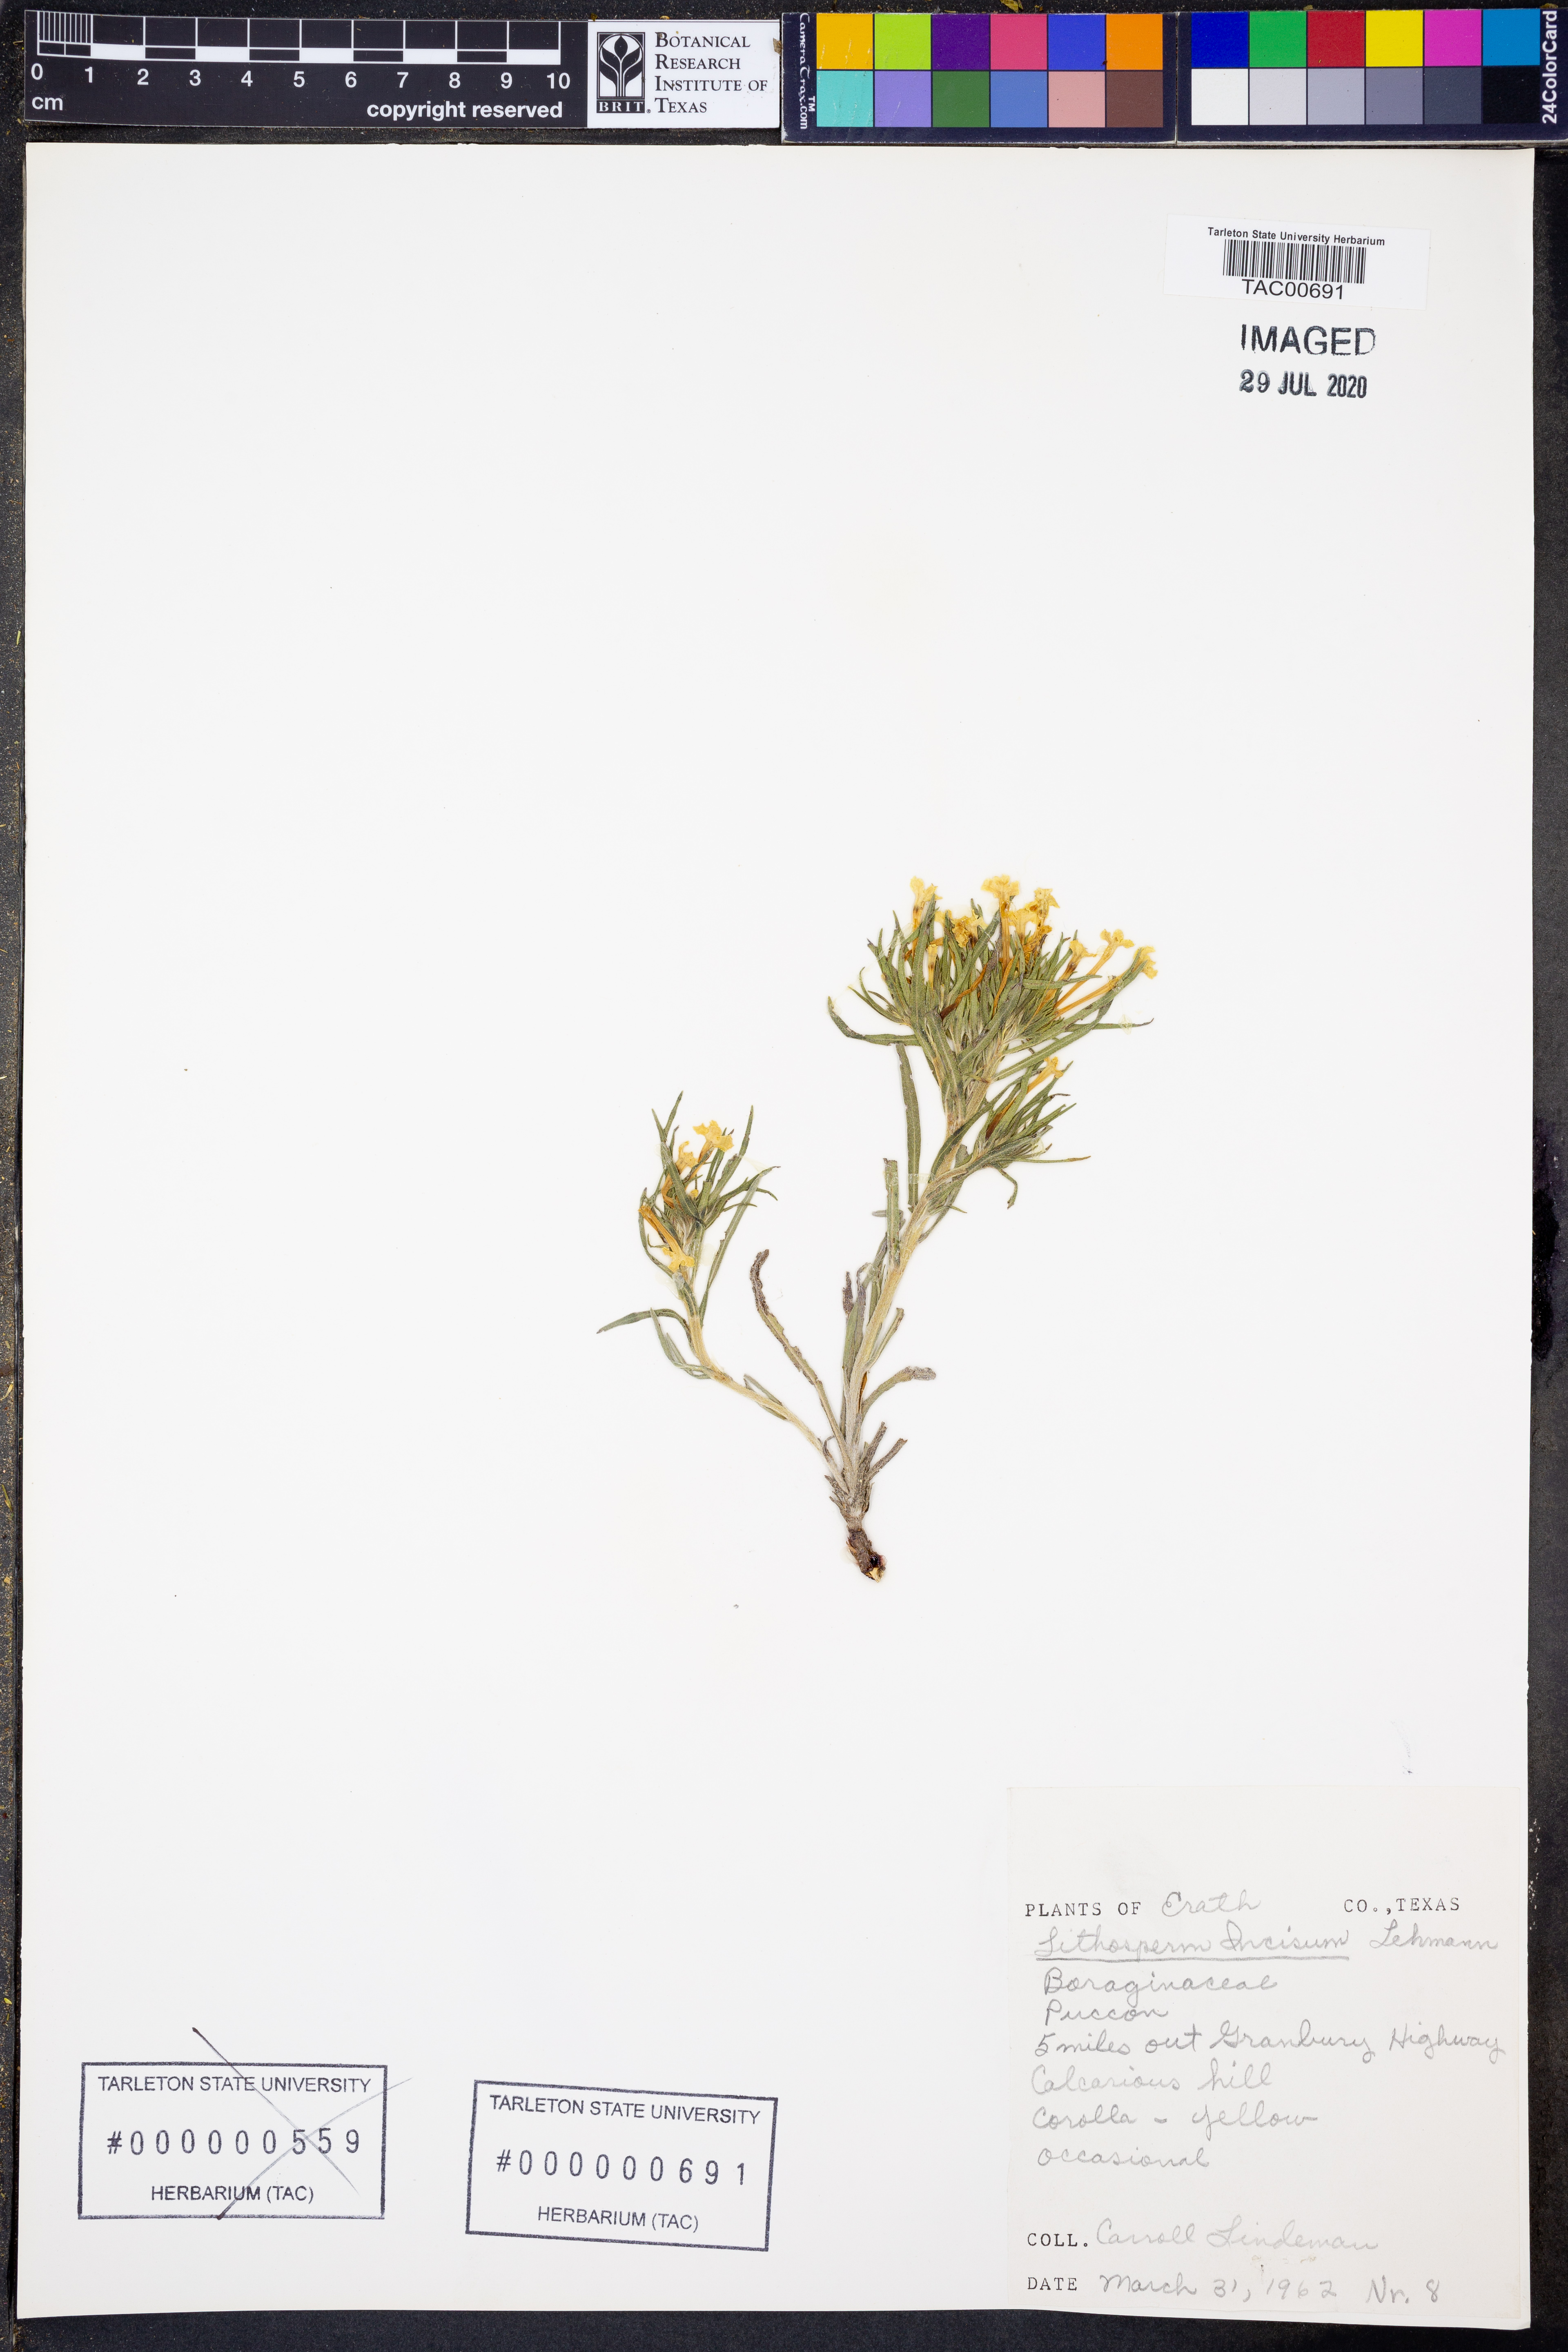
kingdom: Plantae
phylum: Tracheophyta
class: Magnoliopsida
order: Boraginales
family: Boraginaceae
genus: Lithospermum
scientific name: Lithospermum incisum
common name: Fringed gromwell
